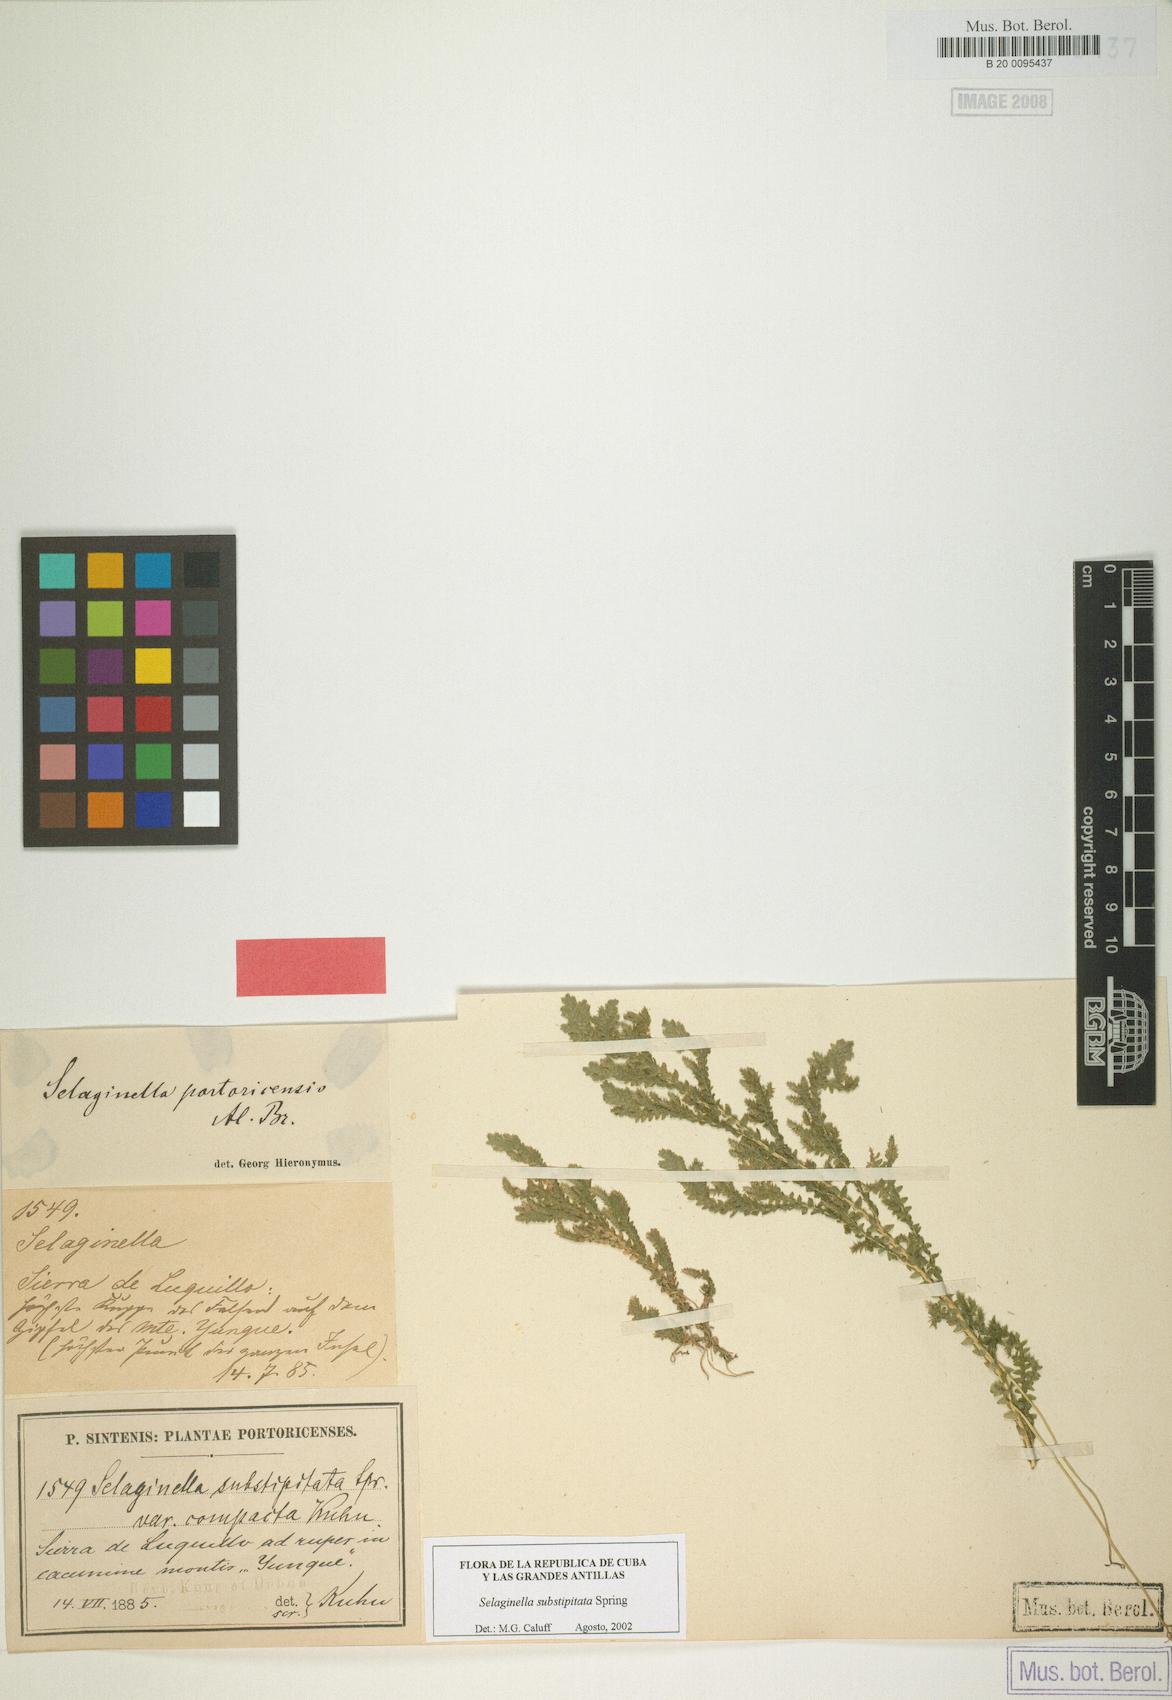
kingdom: Plantae
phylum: Tracheophyta
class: Lycopodiopsida
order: Selaginellales
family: Selaginellaceae
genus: Selaginella
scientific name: Selaginella substipitata
